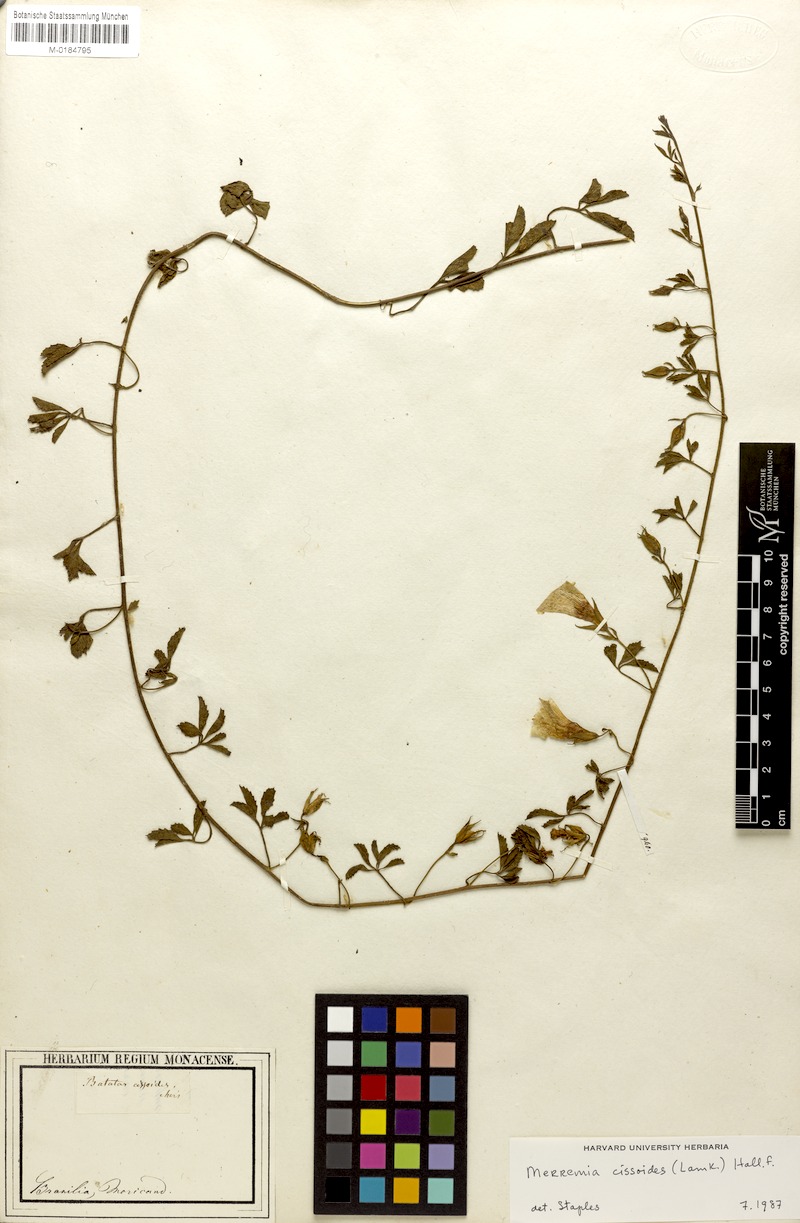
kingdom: Plantae
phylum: Tracheophyta
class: Magnoliopsida
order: Solanales
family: Convolvulaceae
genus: Distimake
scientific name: Distimake cissoides
